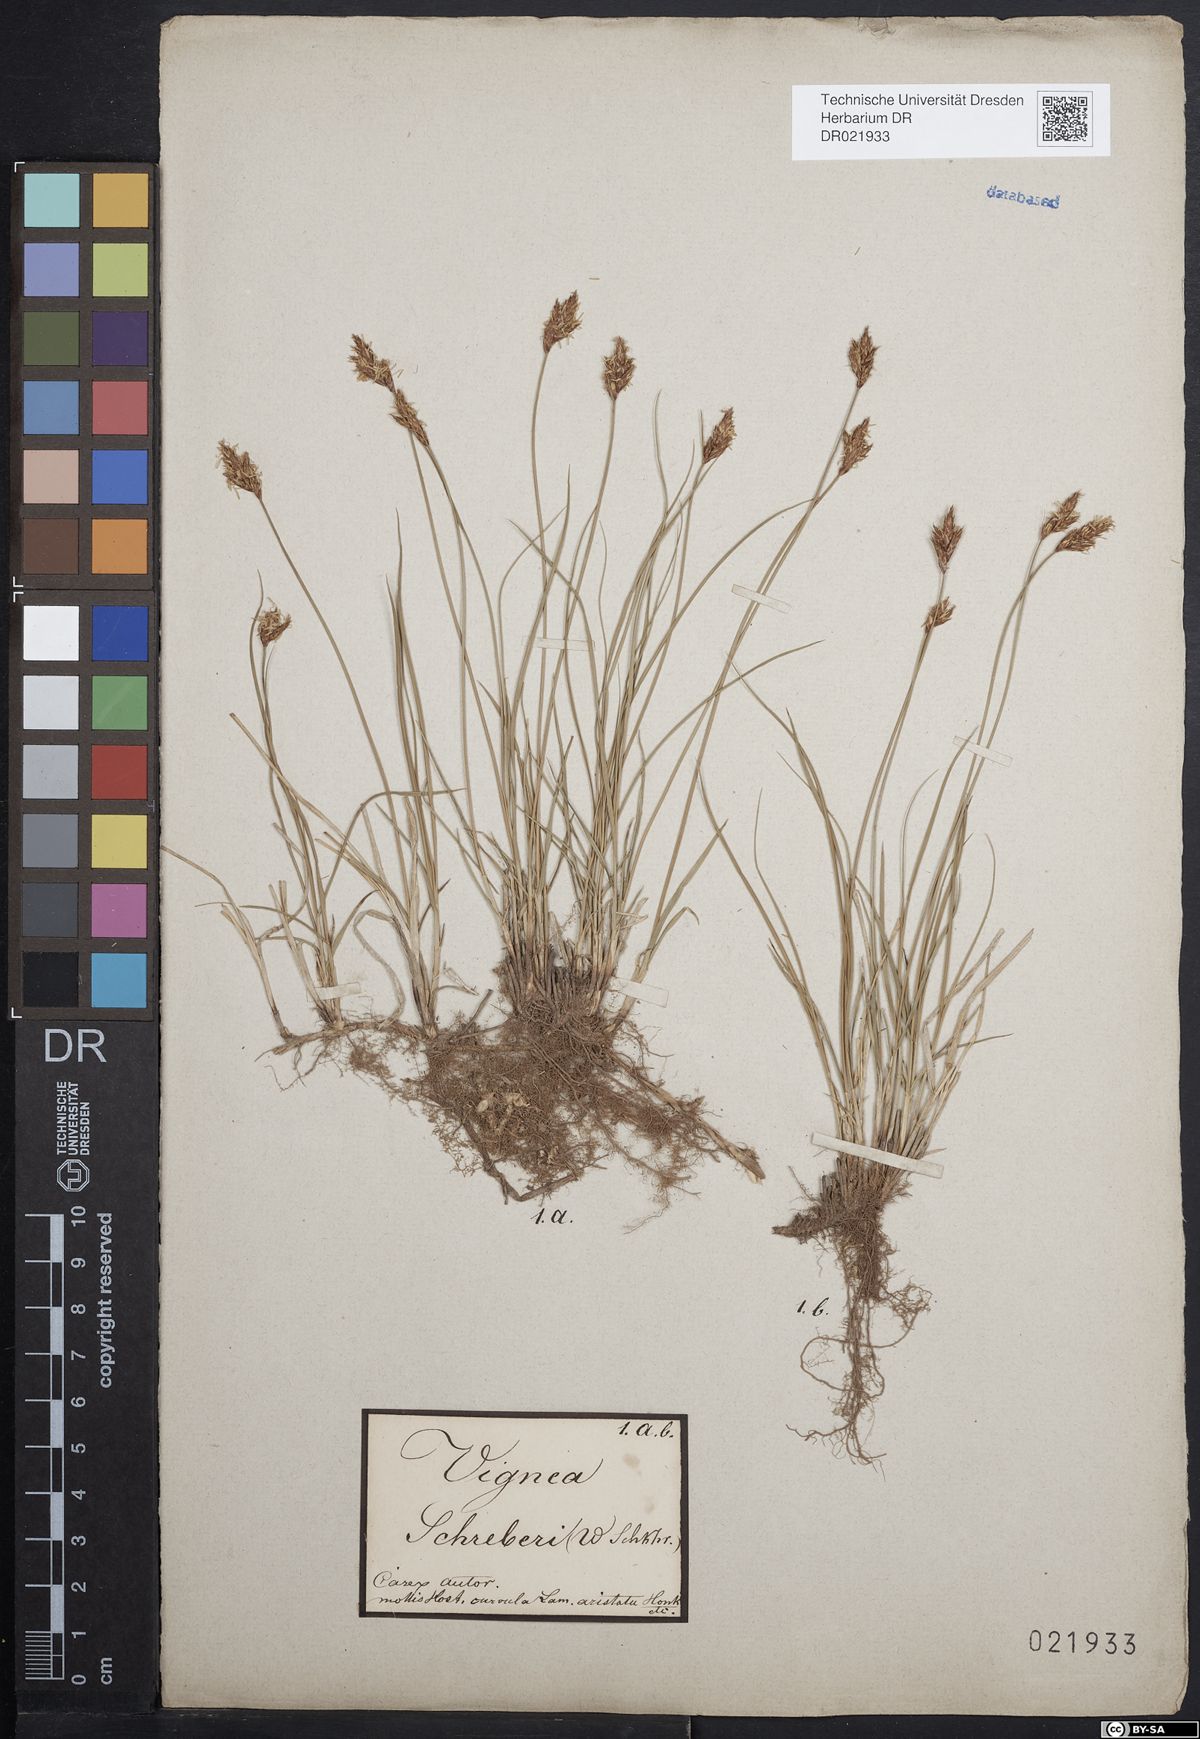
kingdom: Plantae
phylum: Tracheophyta
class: Liliopsida
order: Poales
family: Cyperaceae
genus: Carex
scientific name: Carex praecox
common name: Early sedge
